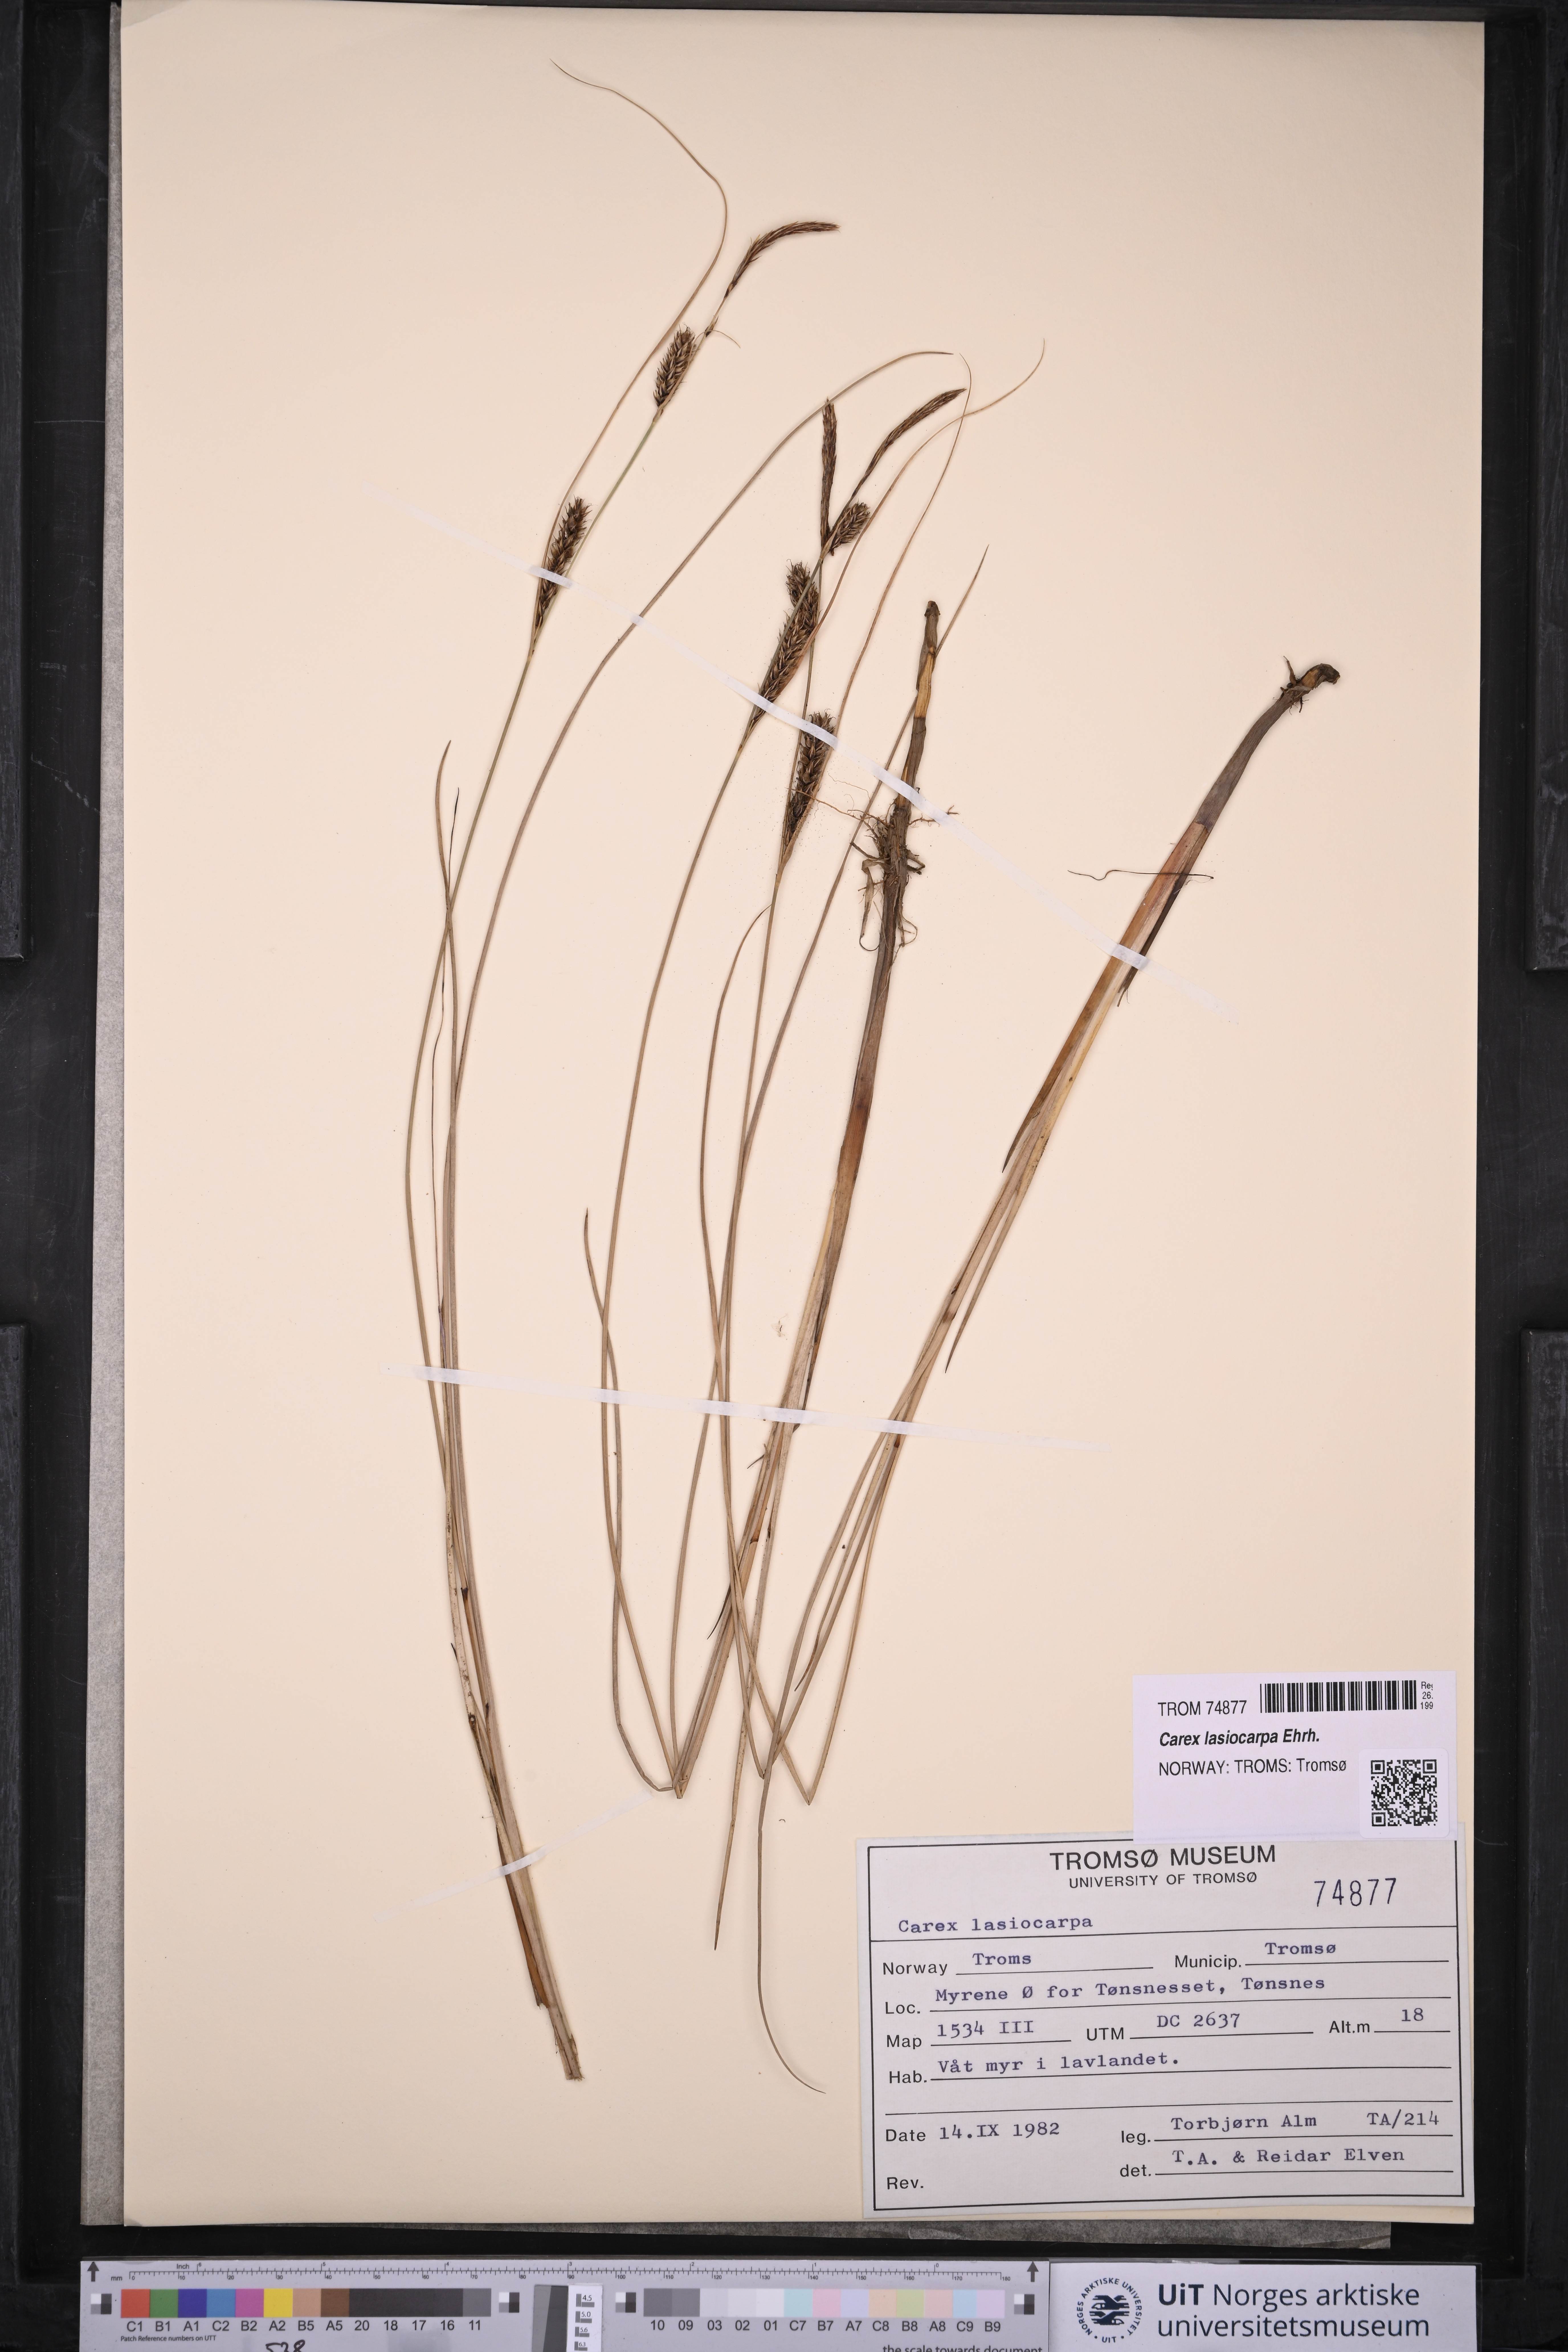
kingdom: Plantae
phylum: Tracheophyta
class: Liliopsida
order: Poales
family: Cyperaceae
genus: Carex
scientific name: Carex lasiocarpa
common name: Slender sedge
